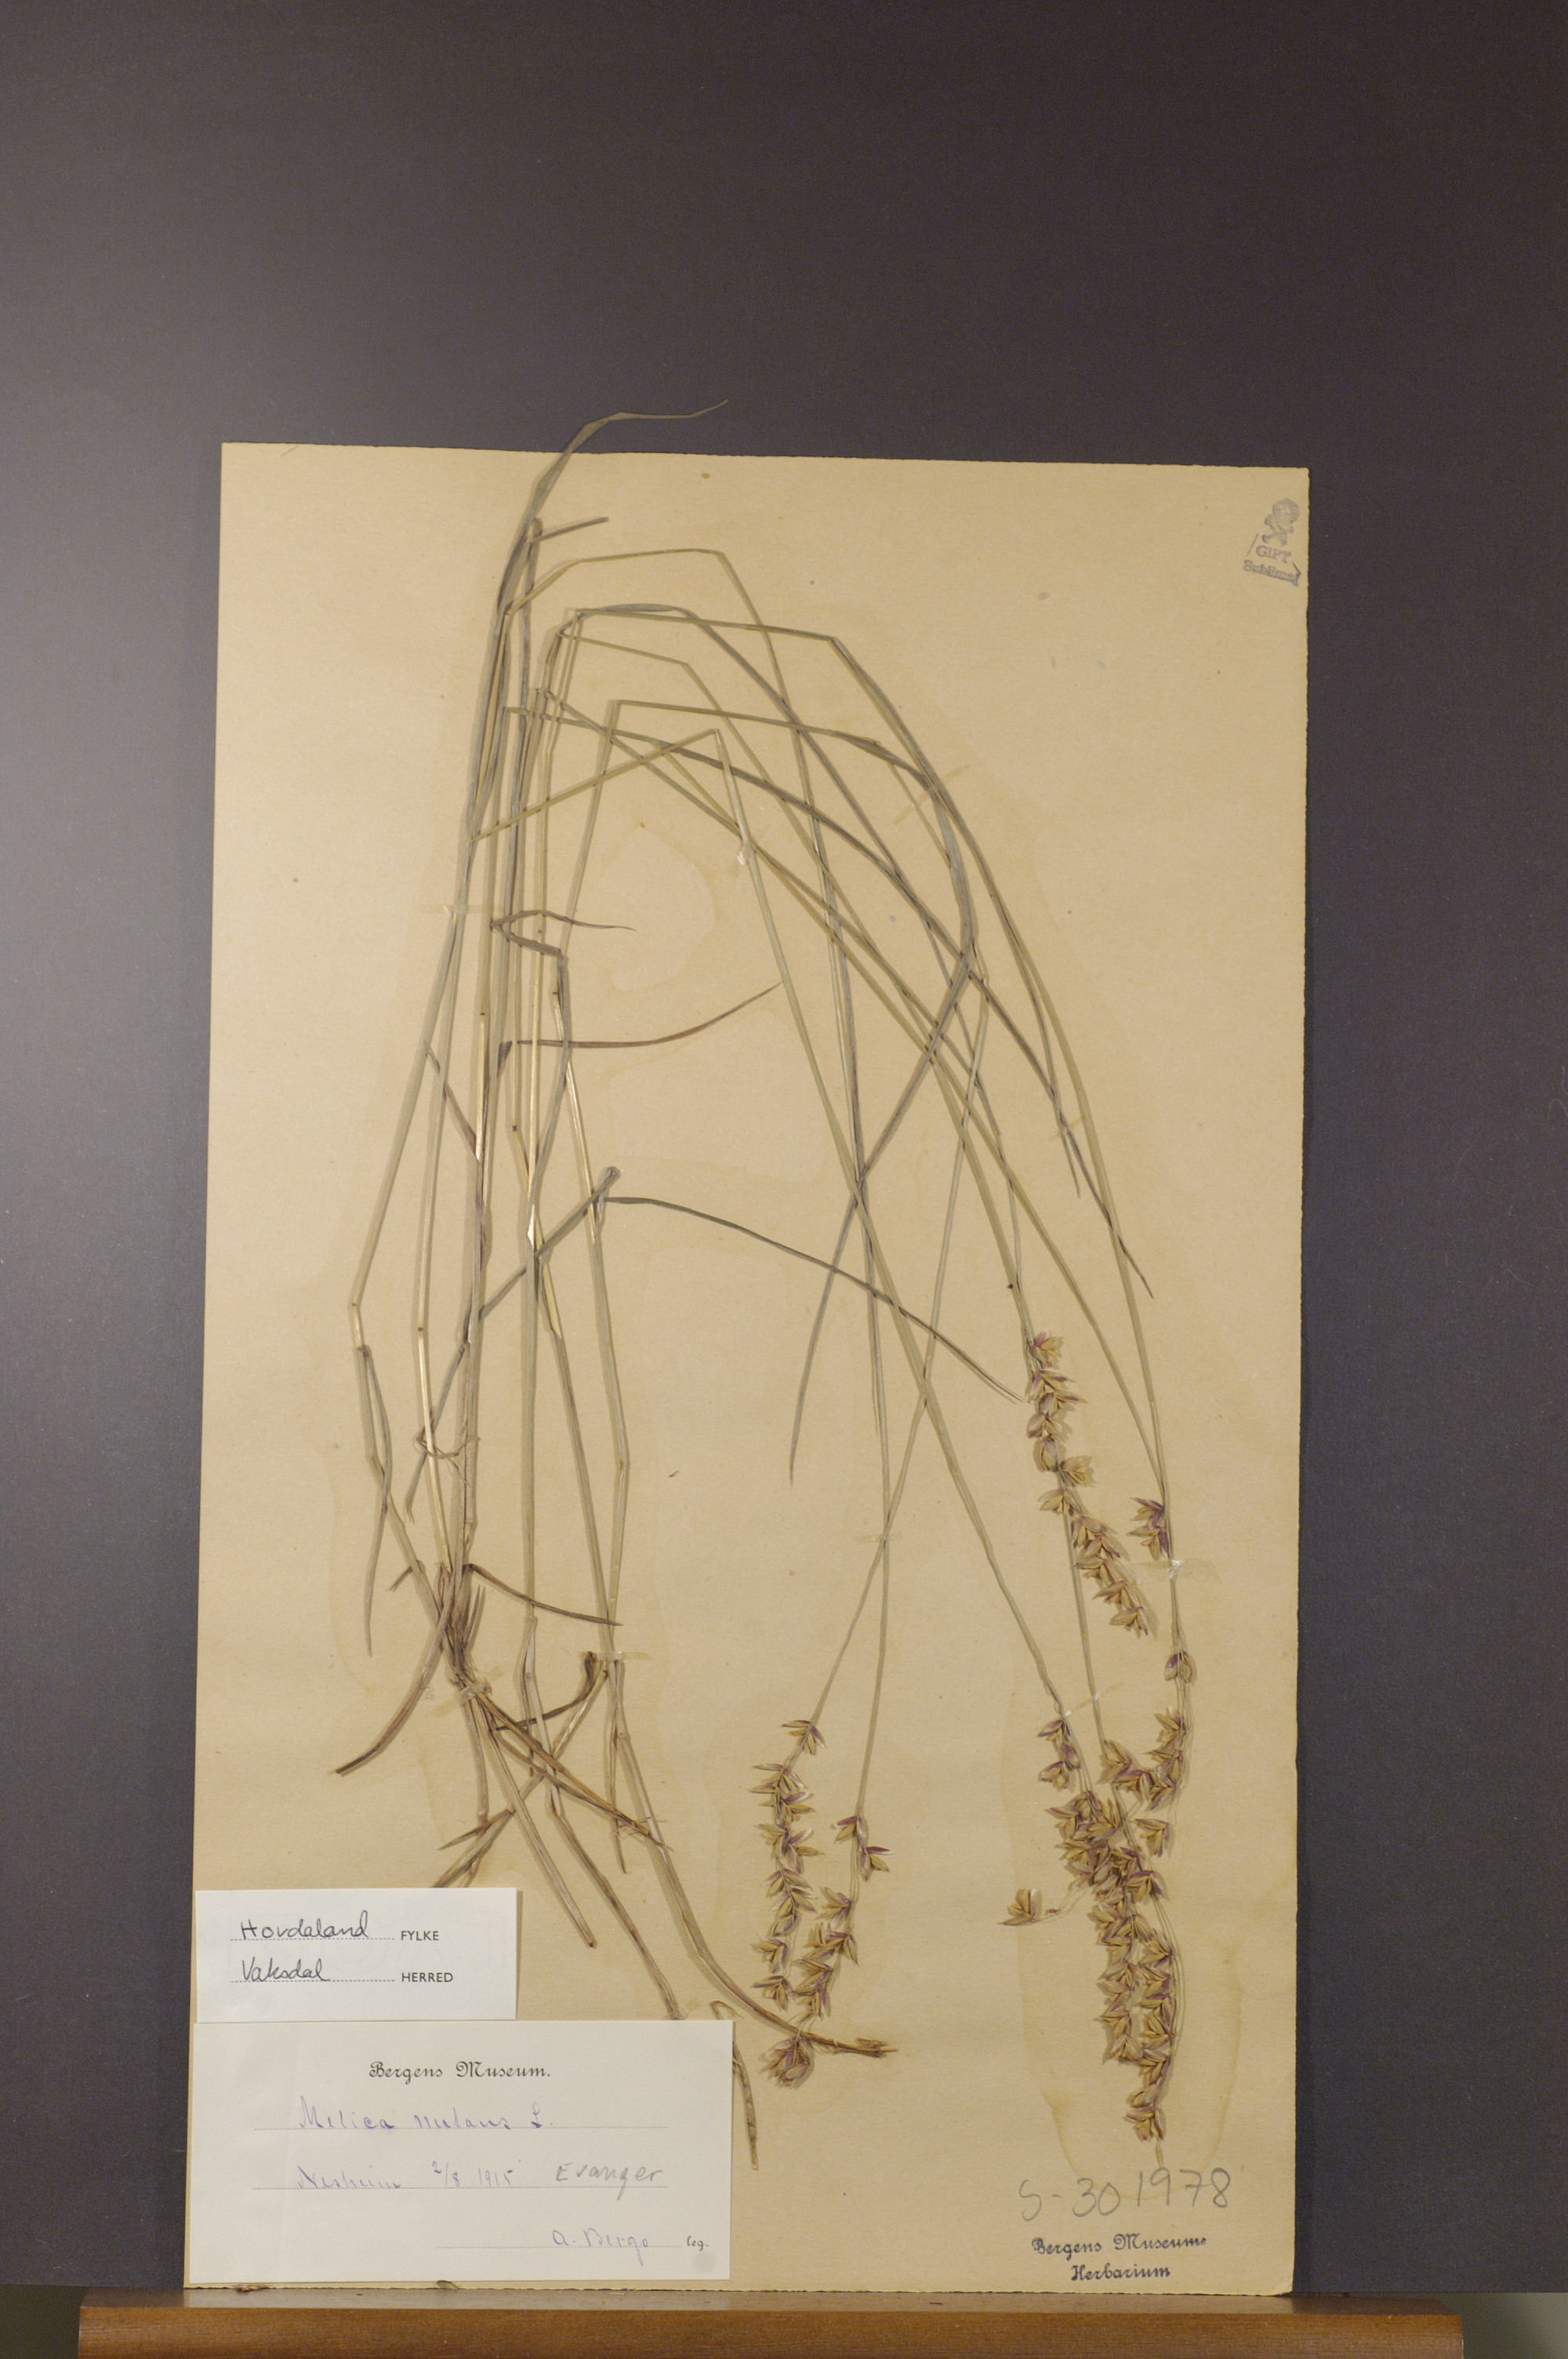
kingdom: Plantae
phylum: Tracheophyta
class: Liliopsida
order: Poales
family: Poaceae
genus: Melica
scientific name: Melica nutans
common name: Mountain melick
